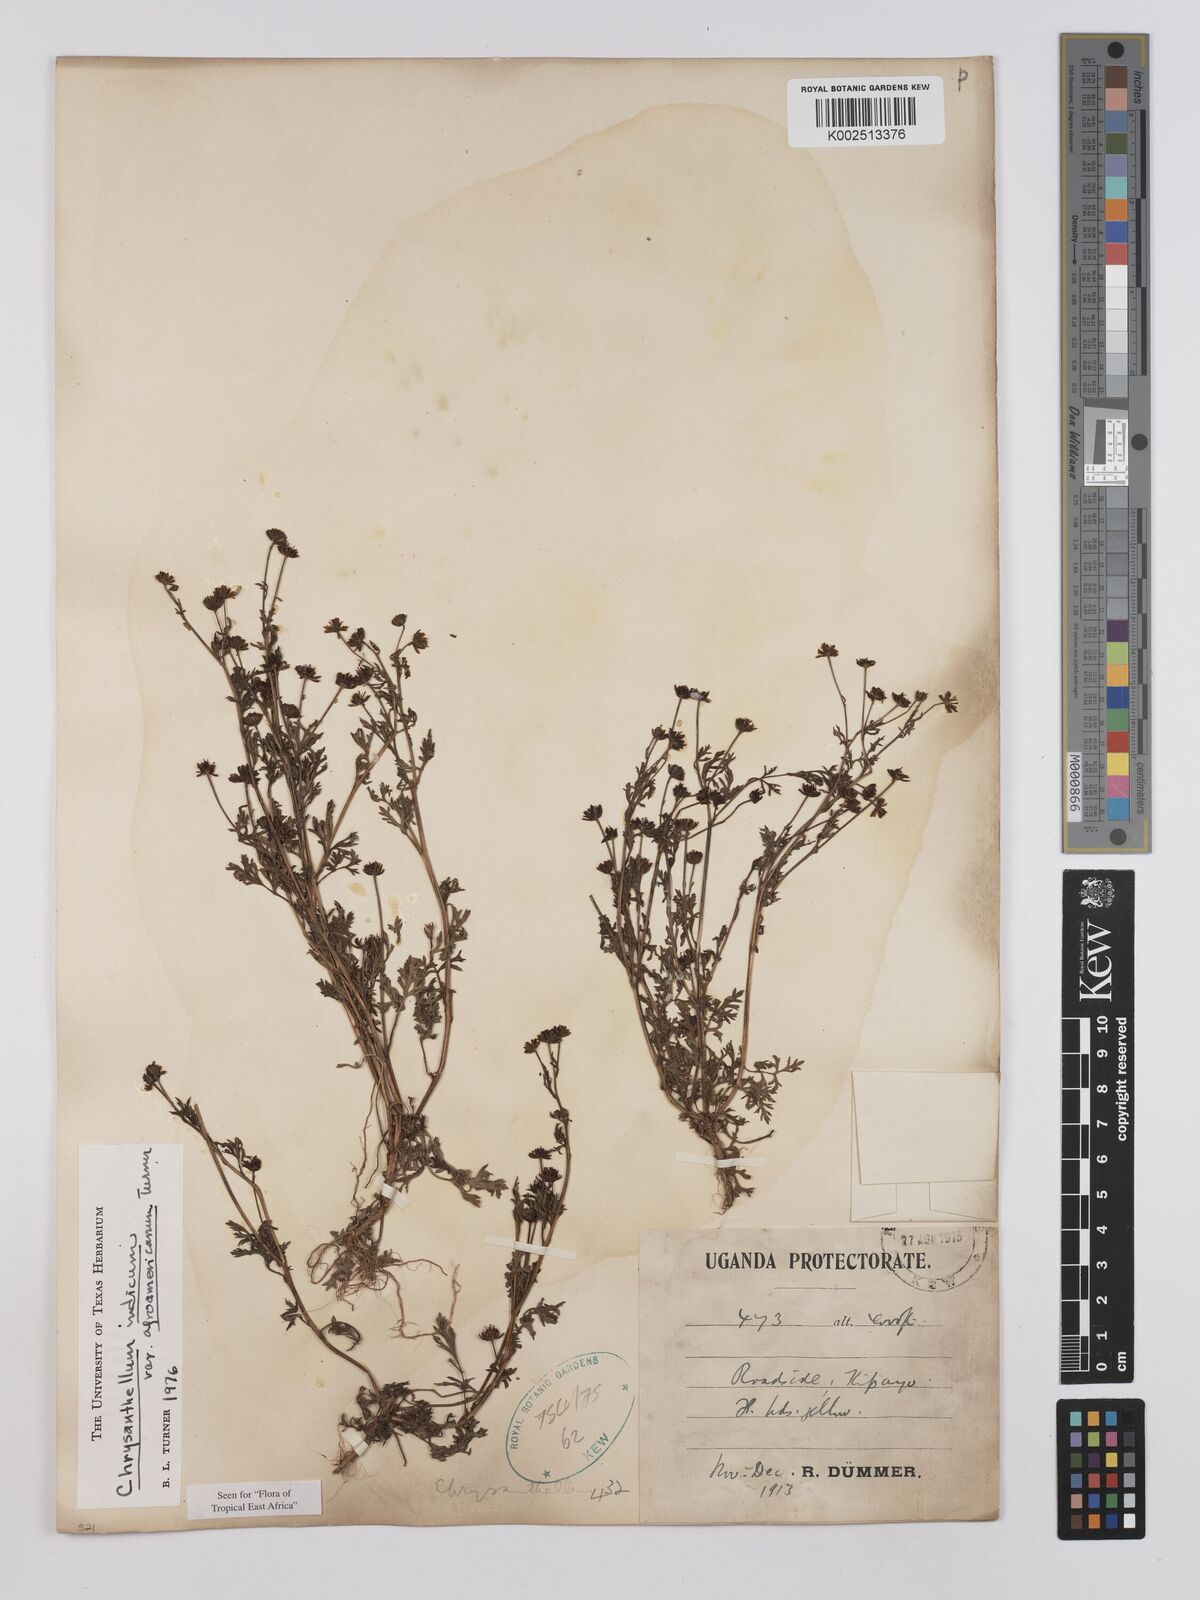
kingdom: Plantae
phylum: Tracheophyta
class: Magnoliopsida
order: Asterales
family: Asteraceae
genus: Chrysanthellum
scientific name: Chrysanthellum indicum
